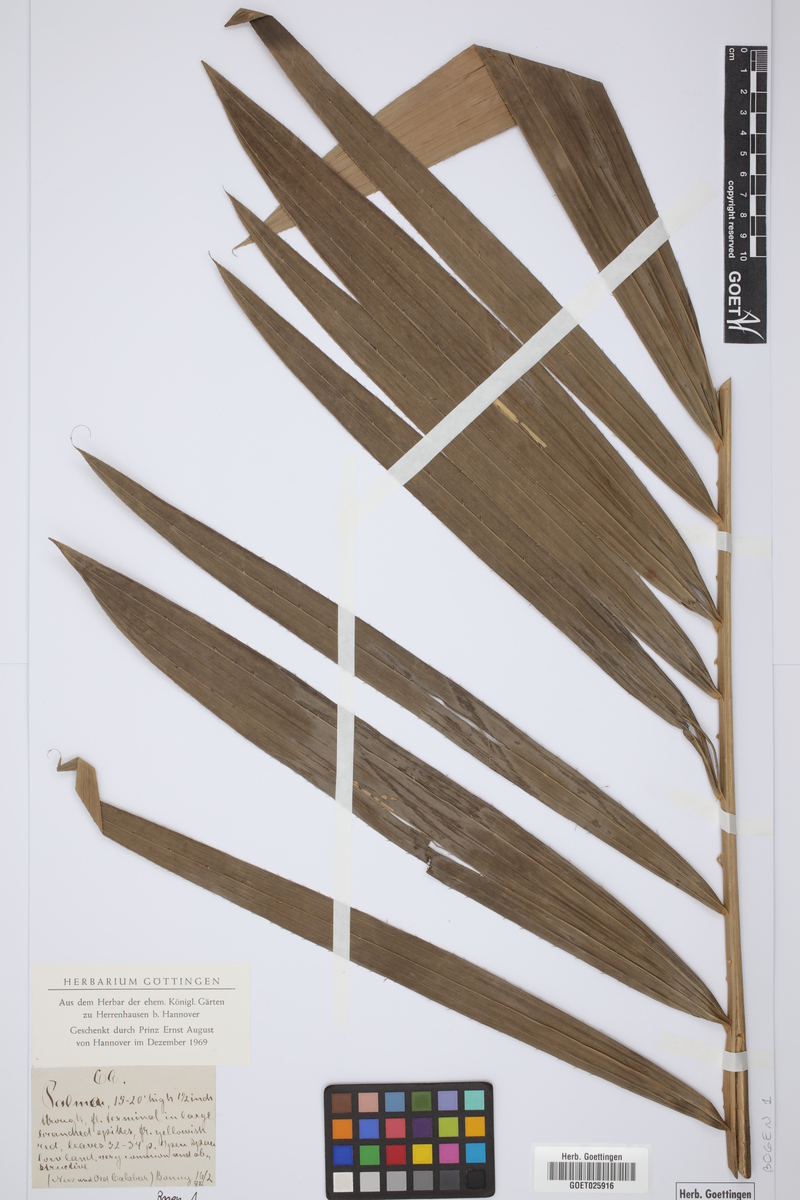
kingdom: Plantae
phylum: Tracheophyta
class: Liliopsida
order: Arecales
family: Arecaceae
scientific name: Arecaceae
